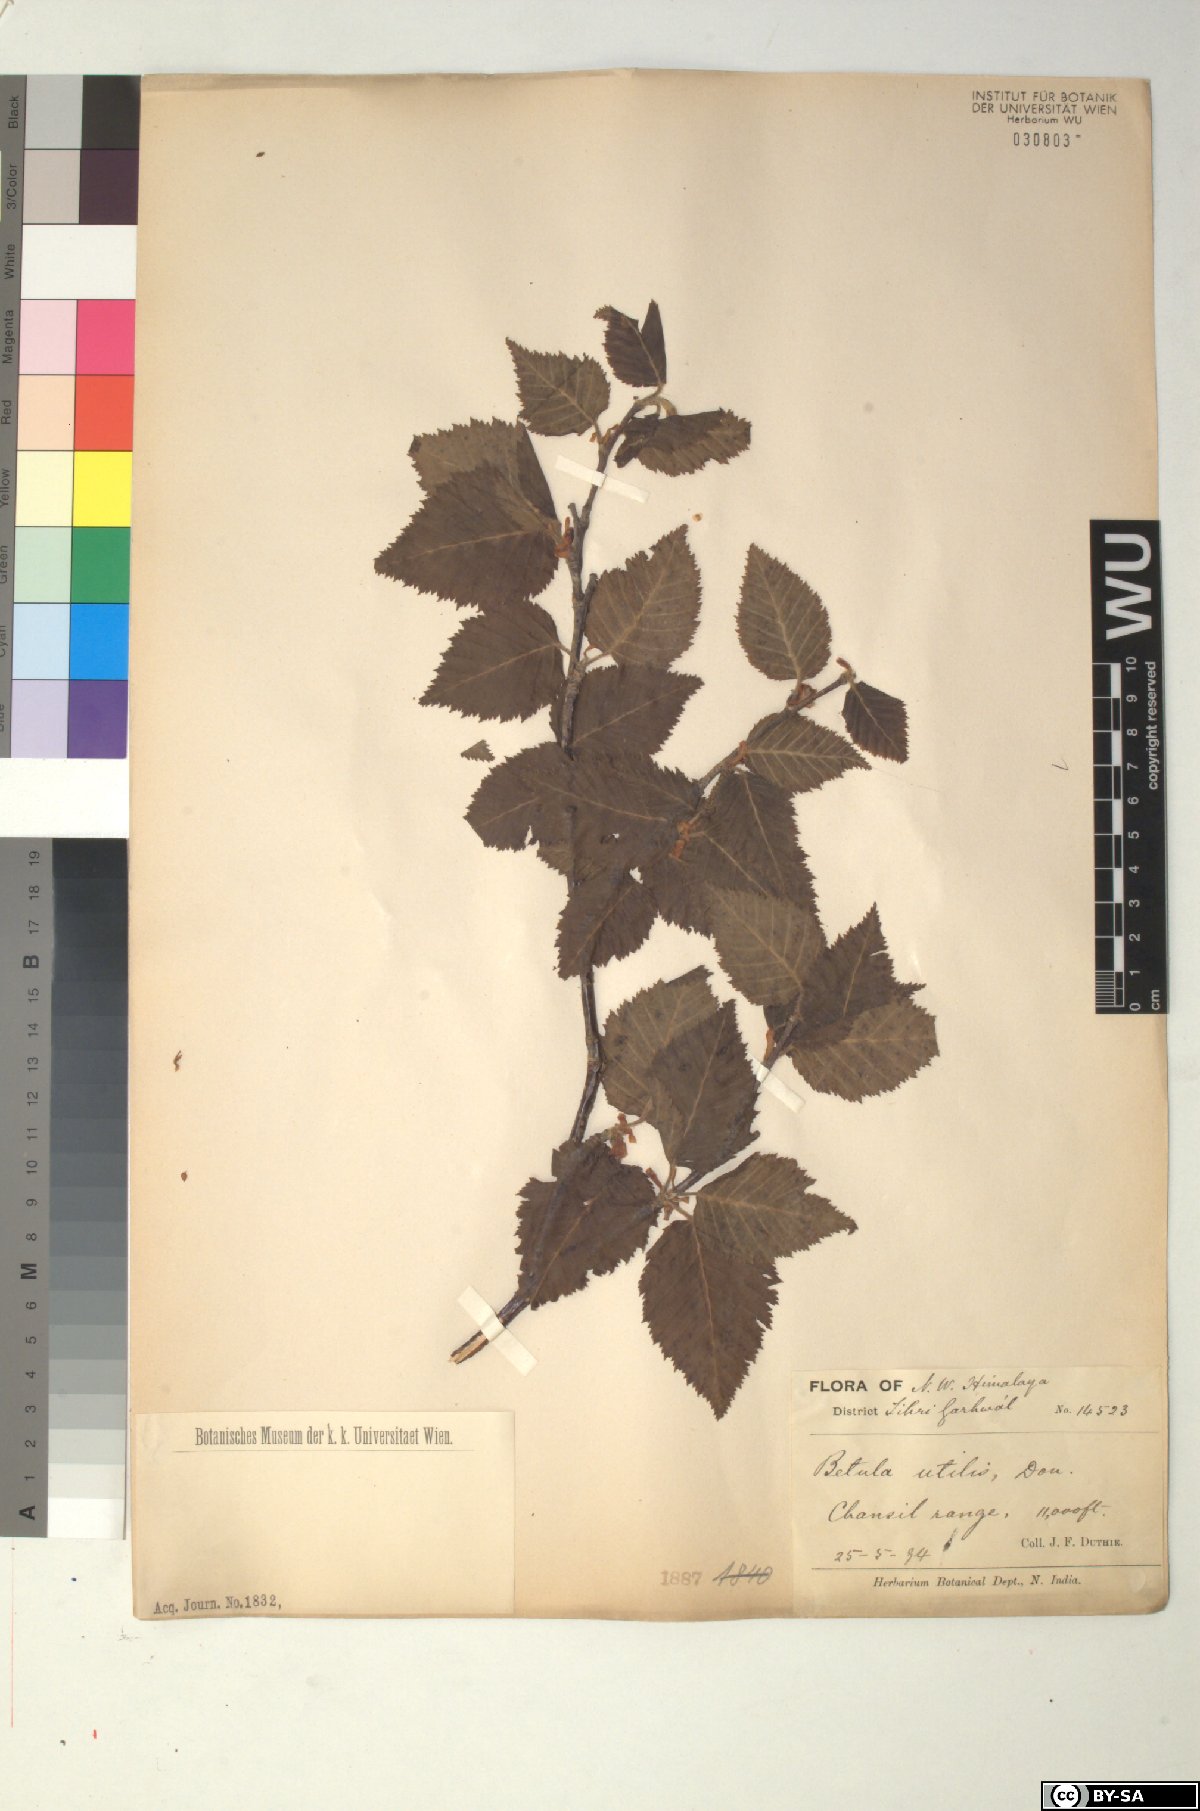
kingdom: Plantae
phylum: Tracheophyta
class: Magnoliopsida
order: Fagales
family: Betulaceae
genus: Betula
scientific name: Betula utilis
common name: Himalayan birch
